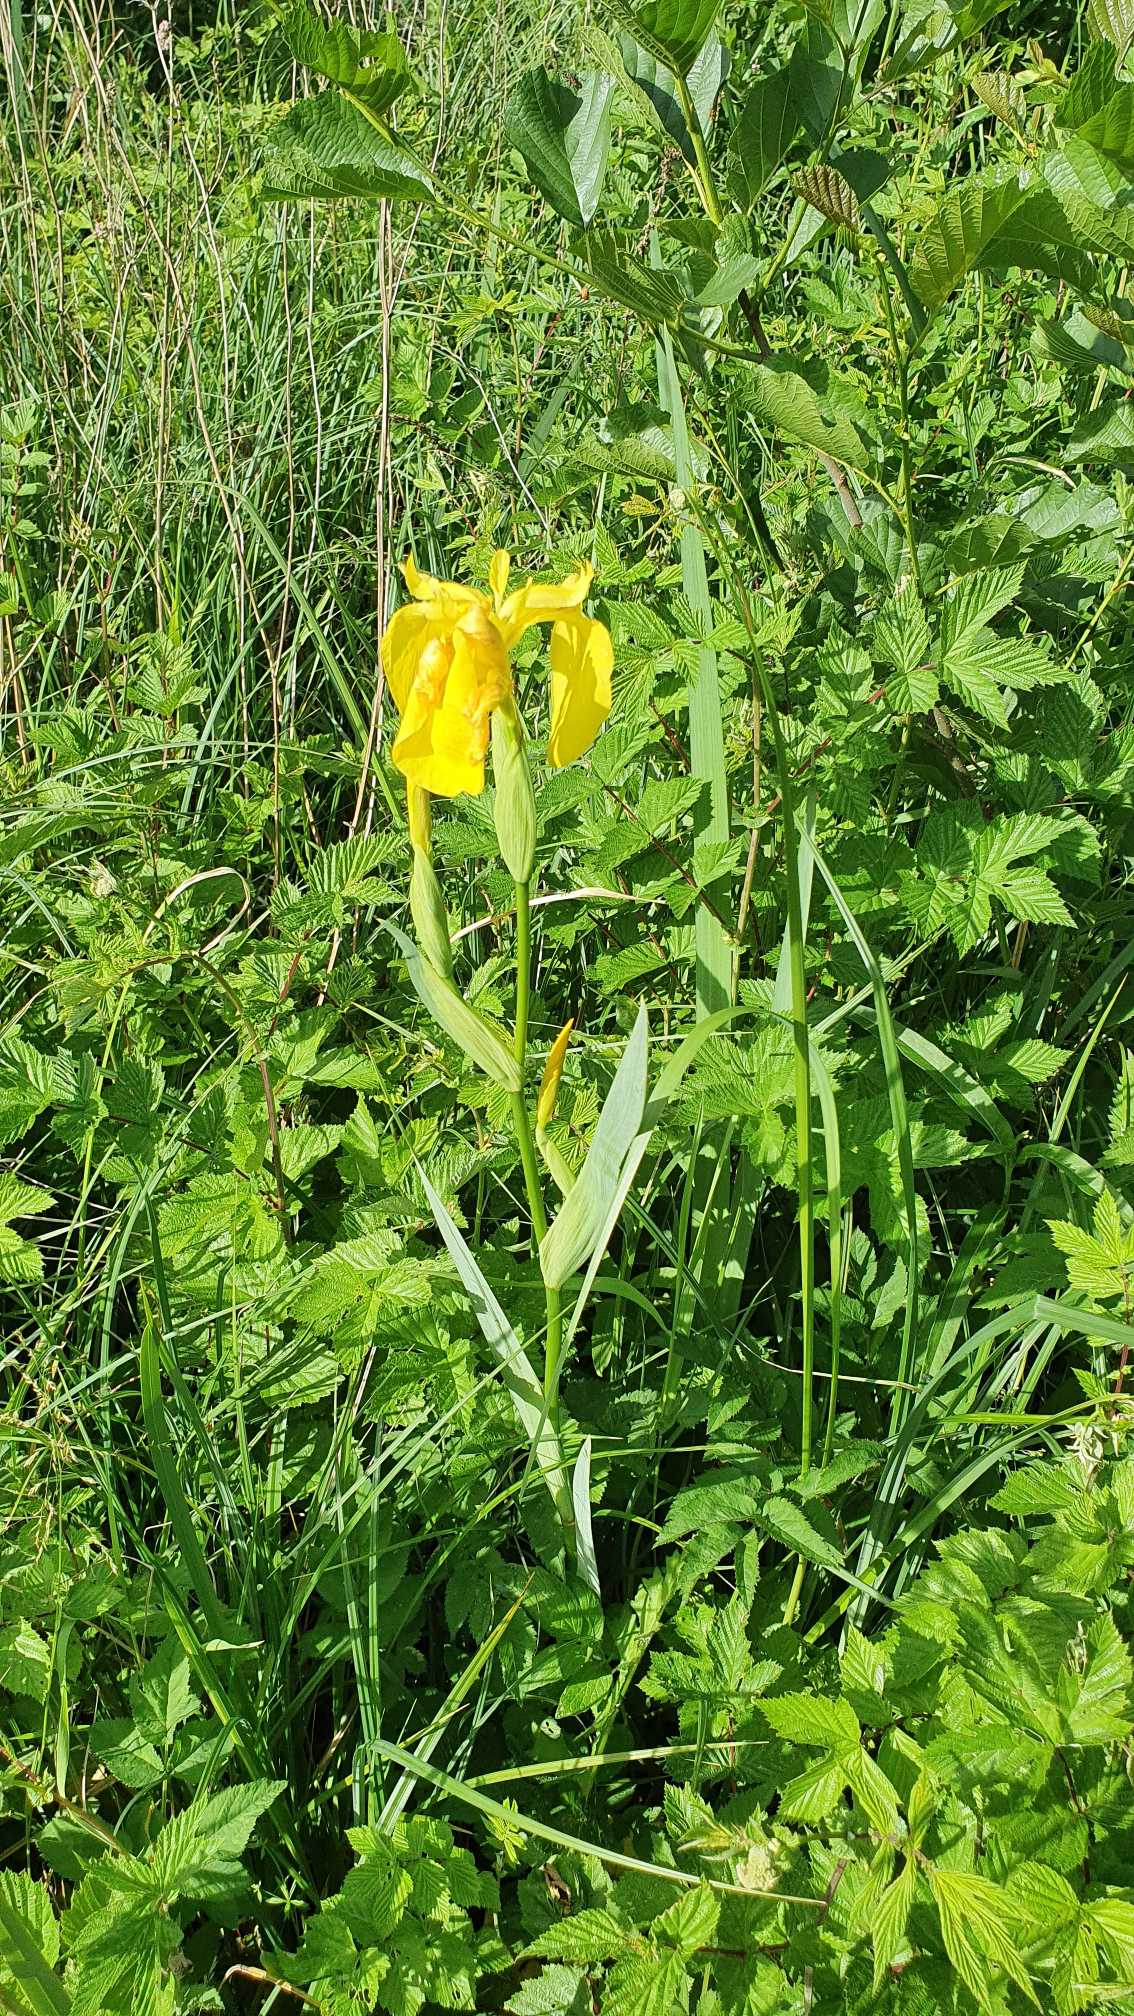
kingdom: Plantae
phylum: Tracheophyta
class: Liliopsida
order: Asparagales
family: Iridaceae
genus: Iris
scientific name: Iris pseudacorus
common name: Gul iris
